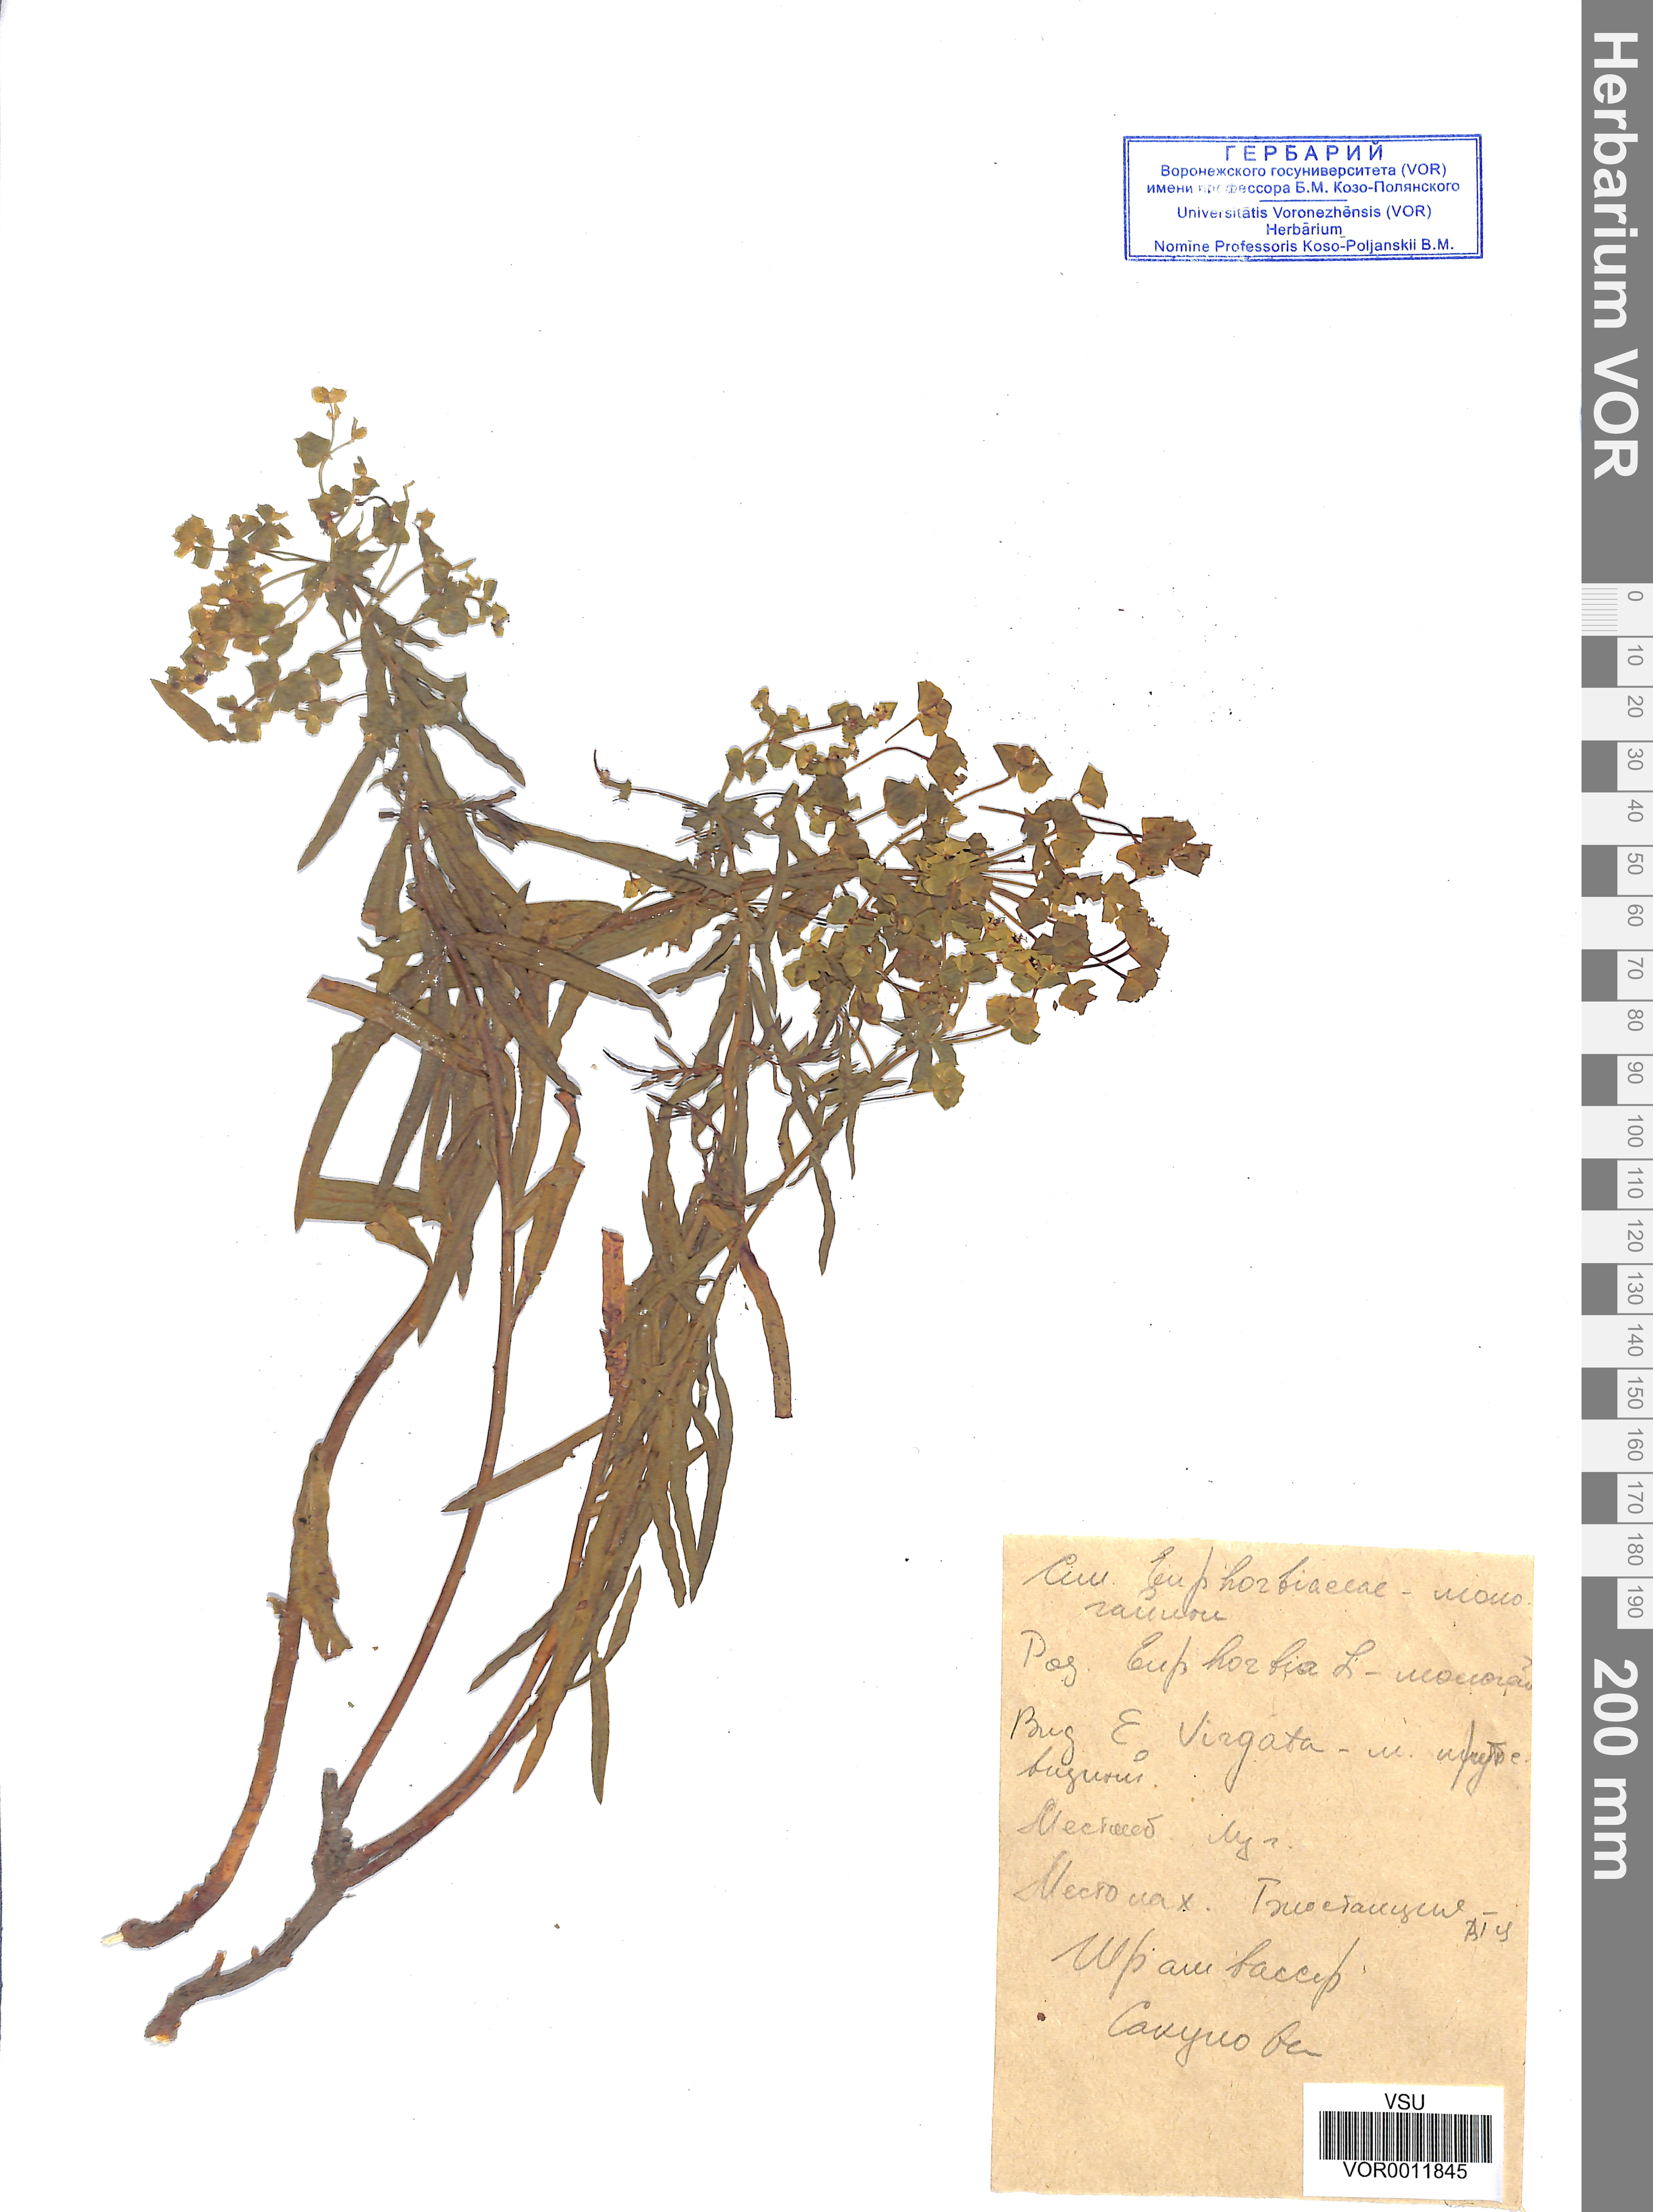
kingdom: Plantae
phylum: Tracheophyta
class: Magnoliopsida
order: Malpighiales
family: Euphorbiaceae
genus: Euphorbia
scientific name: Euphorbia virgata
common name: Leafy spurge
